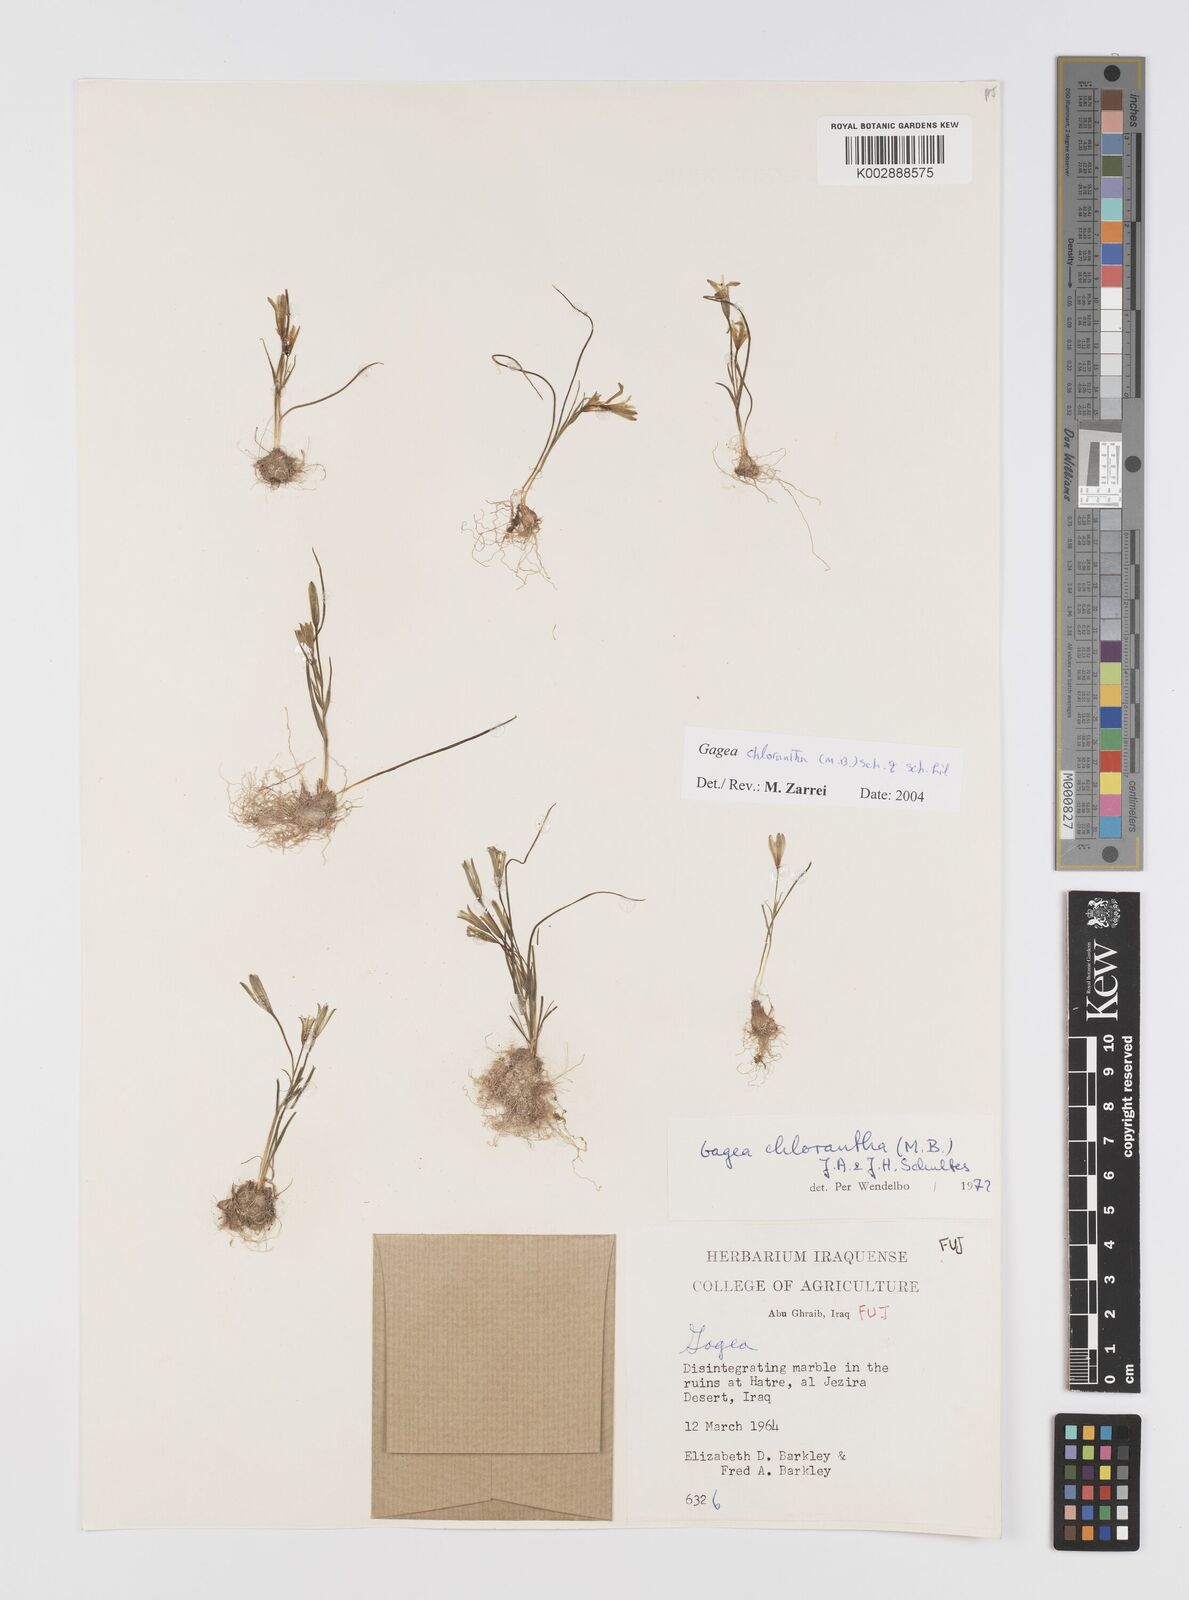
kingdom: Plantae
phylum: Tracheophyta
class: Liliopsida
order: Liliales
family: Liliaceae
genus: Gagea
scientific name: Gagea chlorantha
